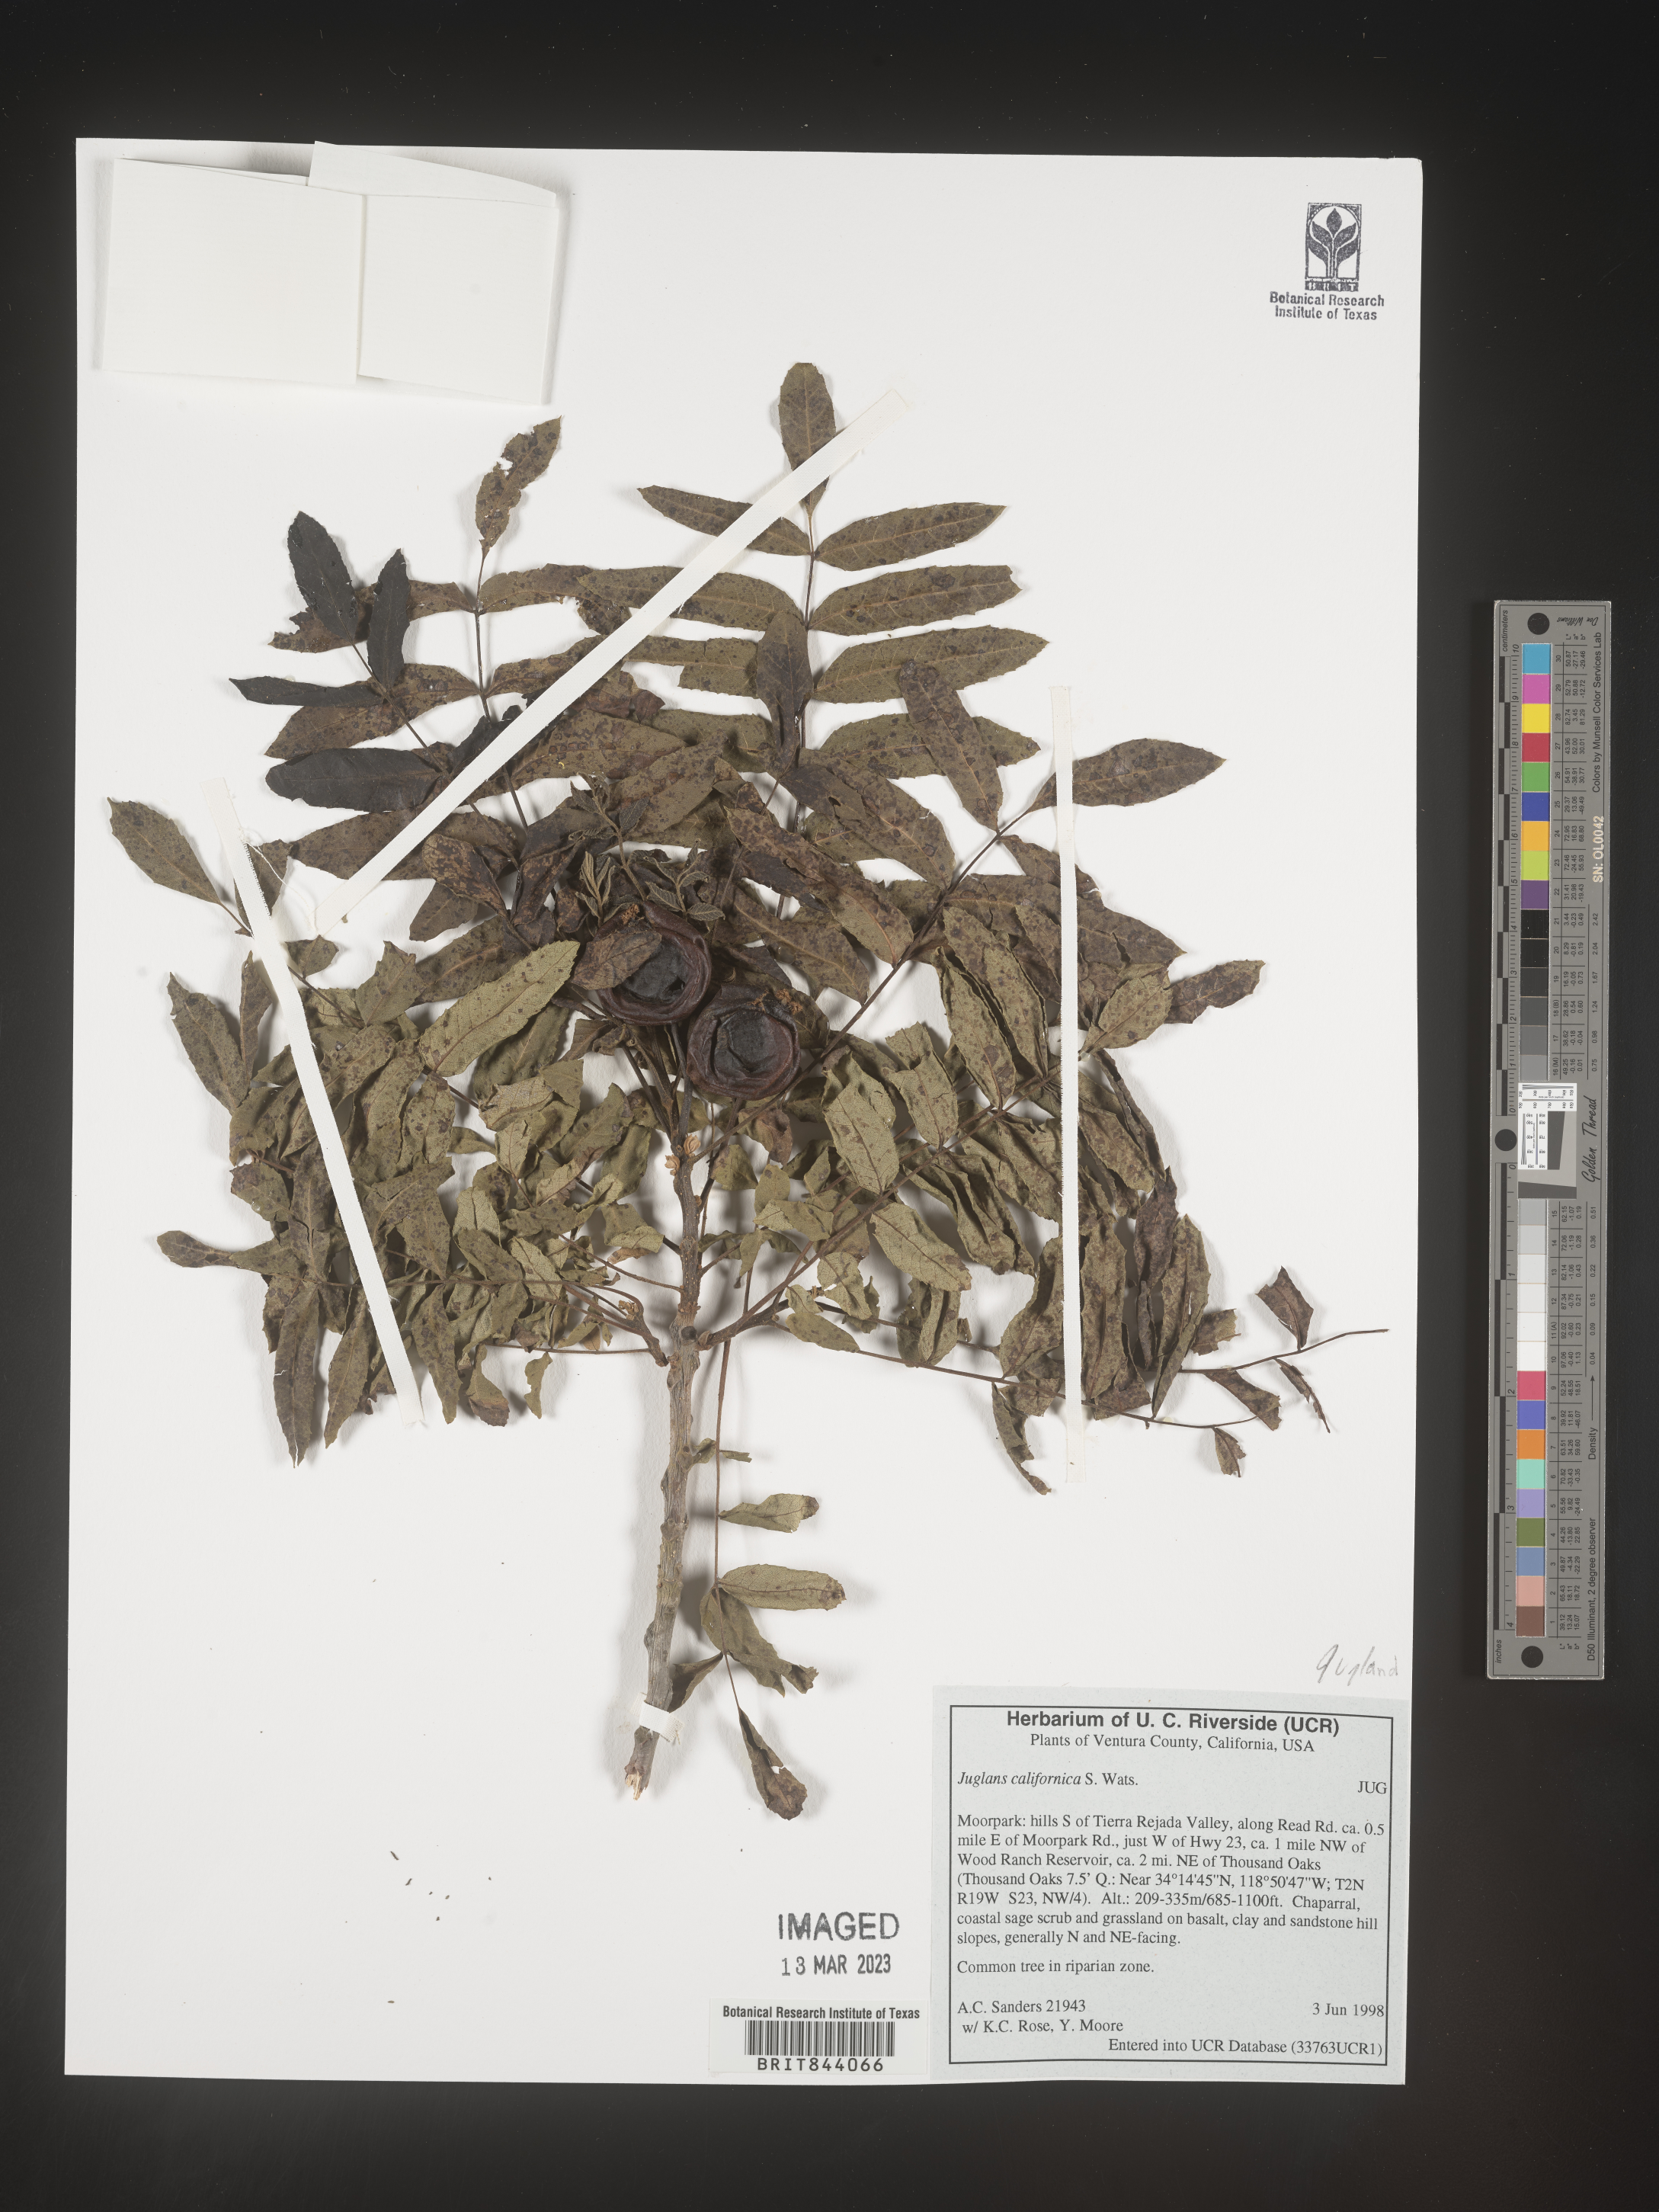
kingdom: Plantae
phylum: Tracheophyta
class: Magnoliopsida
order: Fagales
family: Juglandaceae
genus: Juglans
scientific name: Juglans californica
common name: Southern california black walnut
